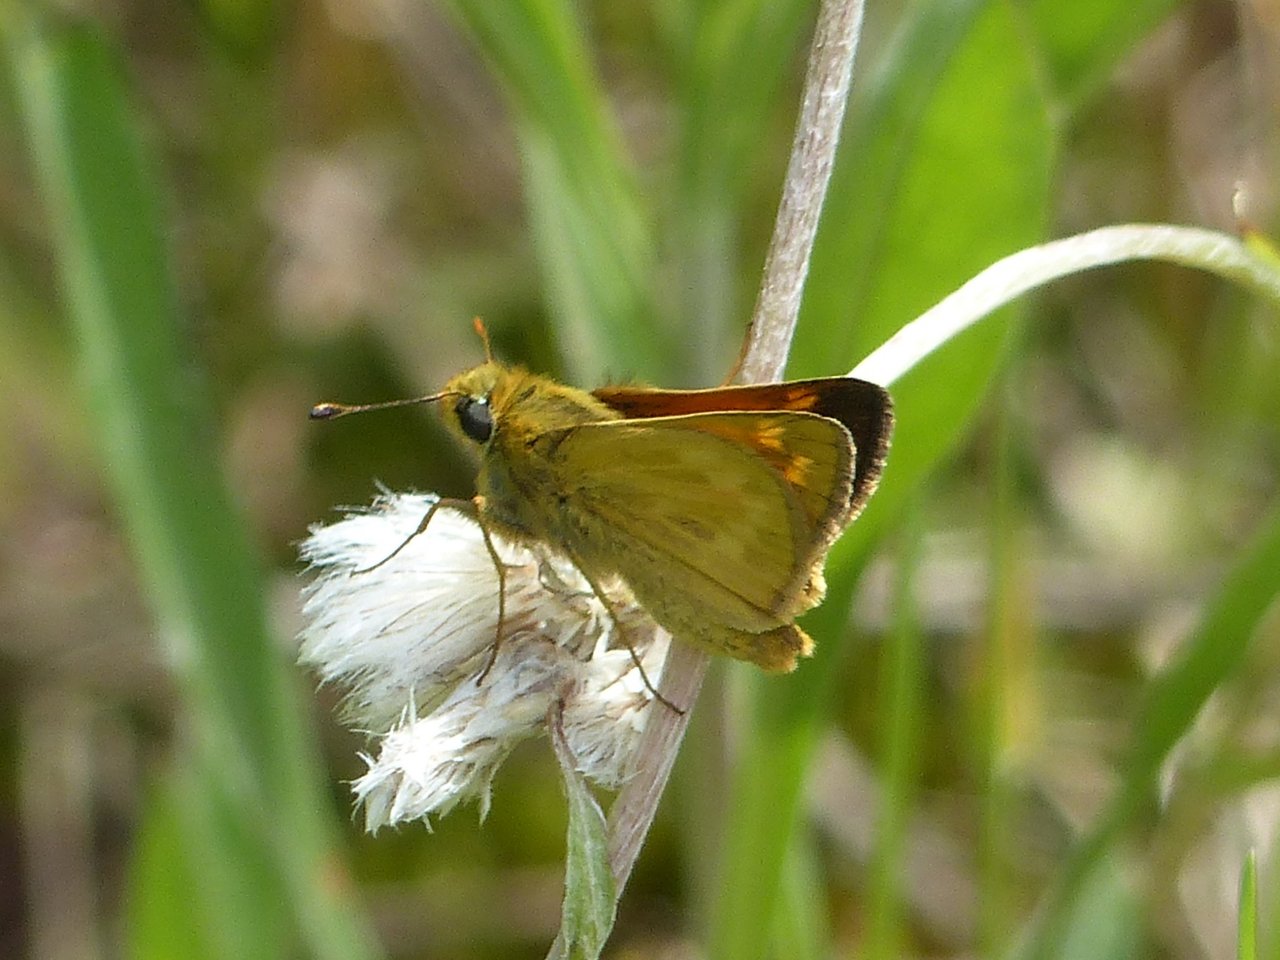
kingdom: Animalia
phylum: Arthropoda
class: Insecta
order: Lepidoptera
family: Hesperiidae
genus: Hesperia
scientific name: Hesperia sassacus
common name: Sassacus Skipper
